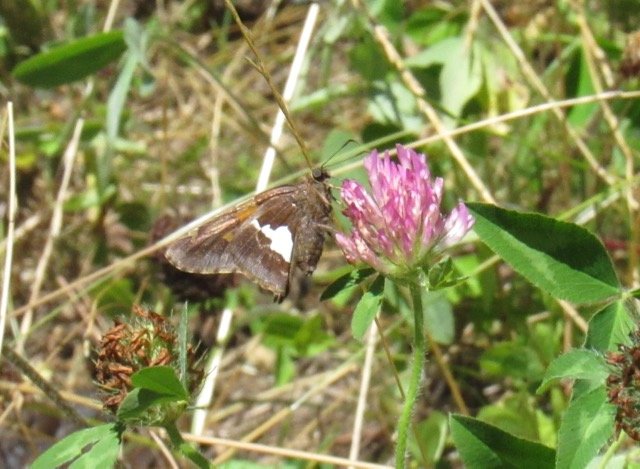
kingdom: Animalia
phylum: Arthropoda
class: Insecta
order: Lepidoptera
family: Hesperiidae
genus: Epargyreus
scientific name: Epargyreus clarus
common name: Silver-spotted Skipper
